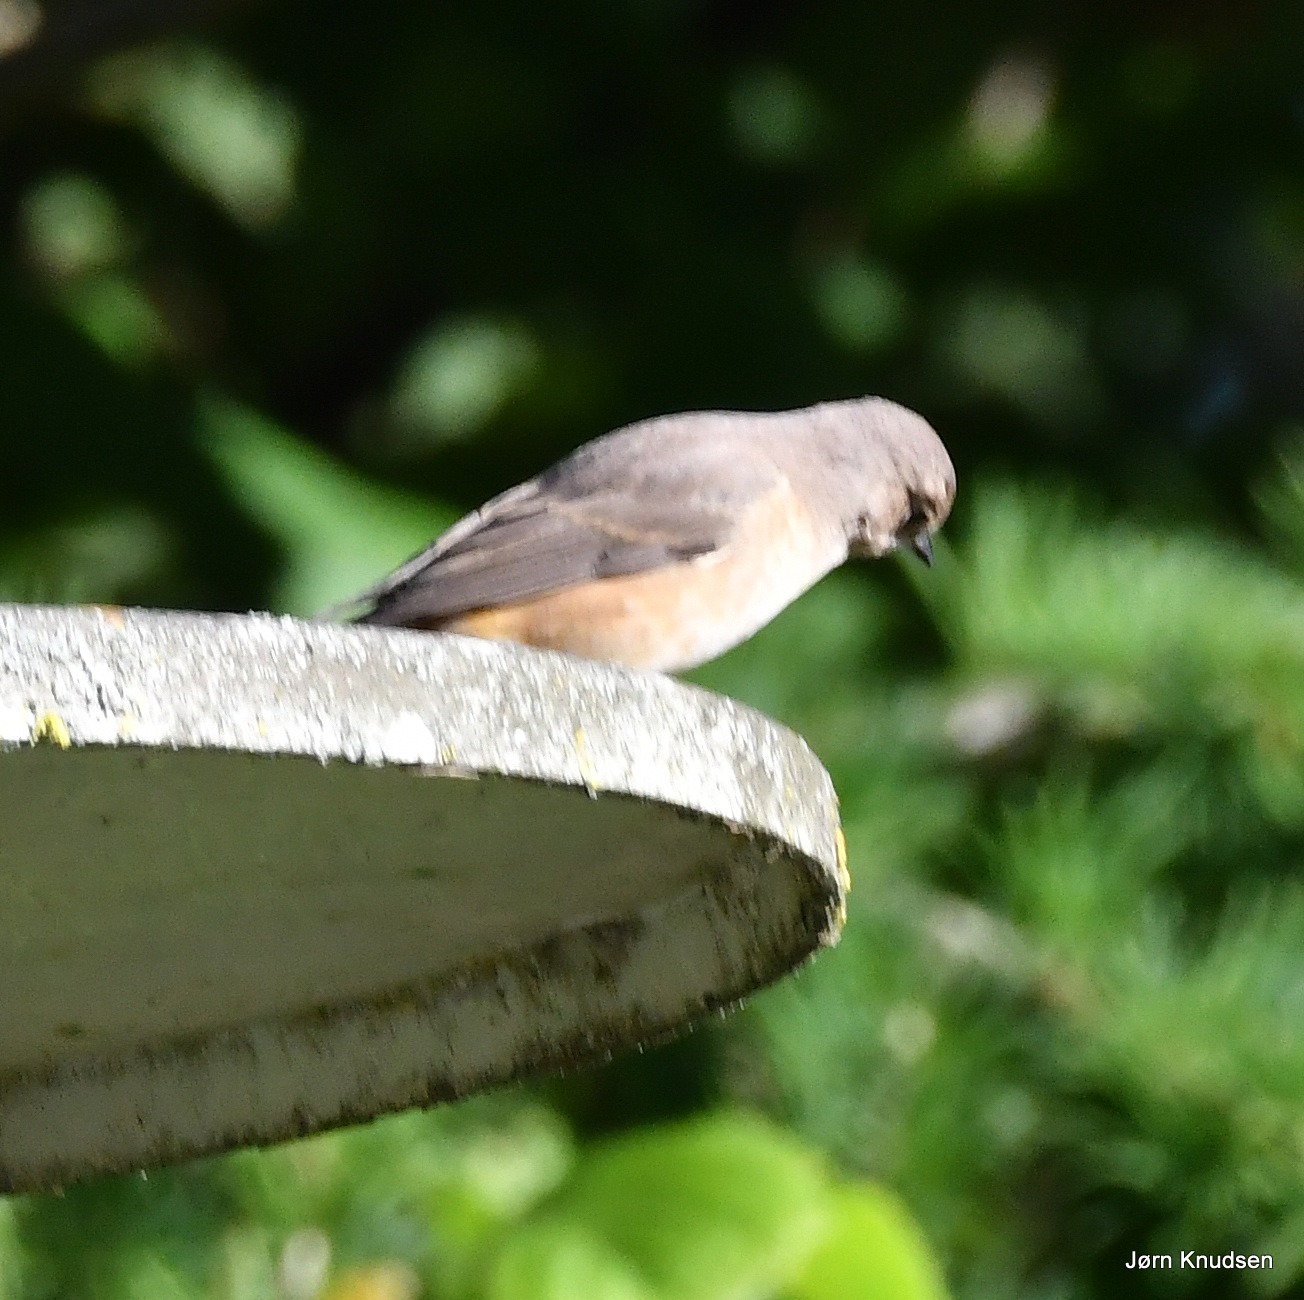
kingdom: Animalia
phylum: Chordata
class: Aves
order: Passeriformes
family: Muscicapidae
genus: Phoenicurus
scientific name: Phoenicurus phoenicurus
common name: Rødstjert
